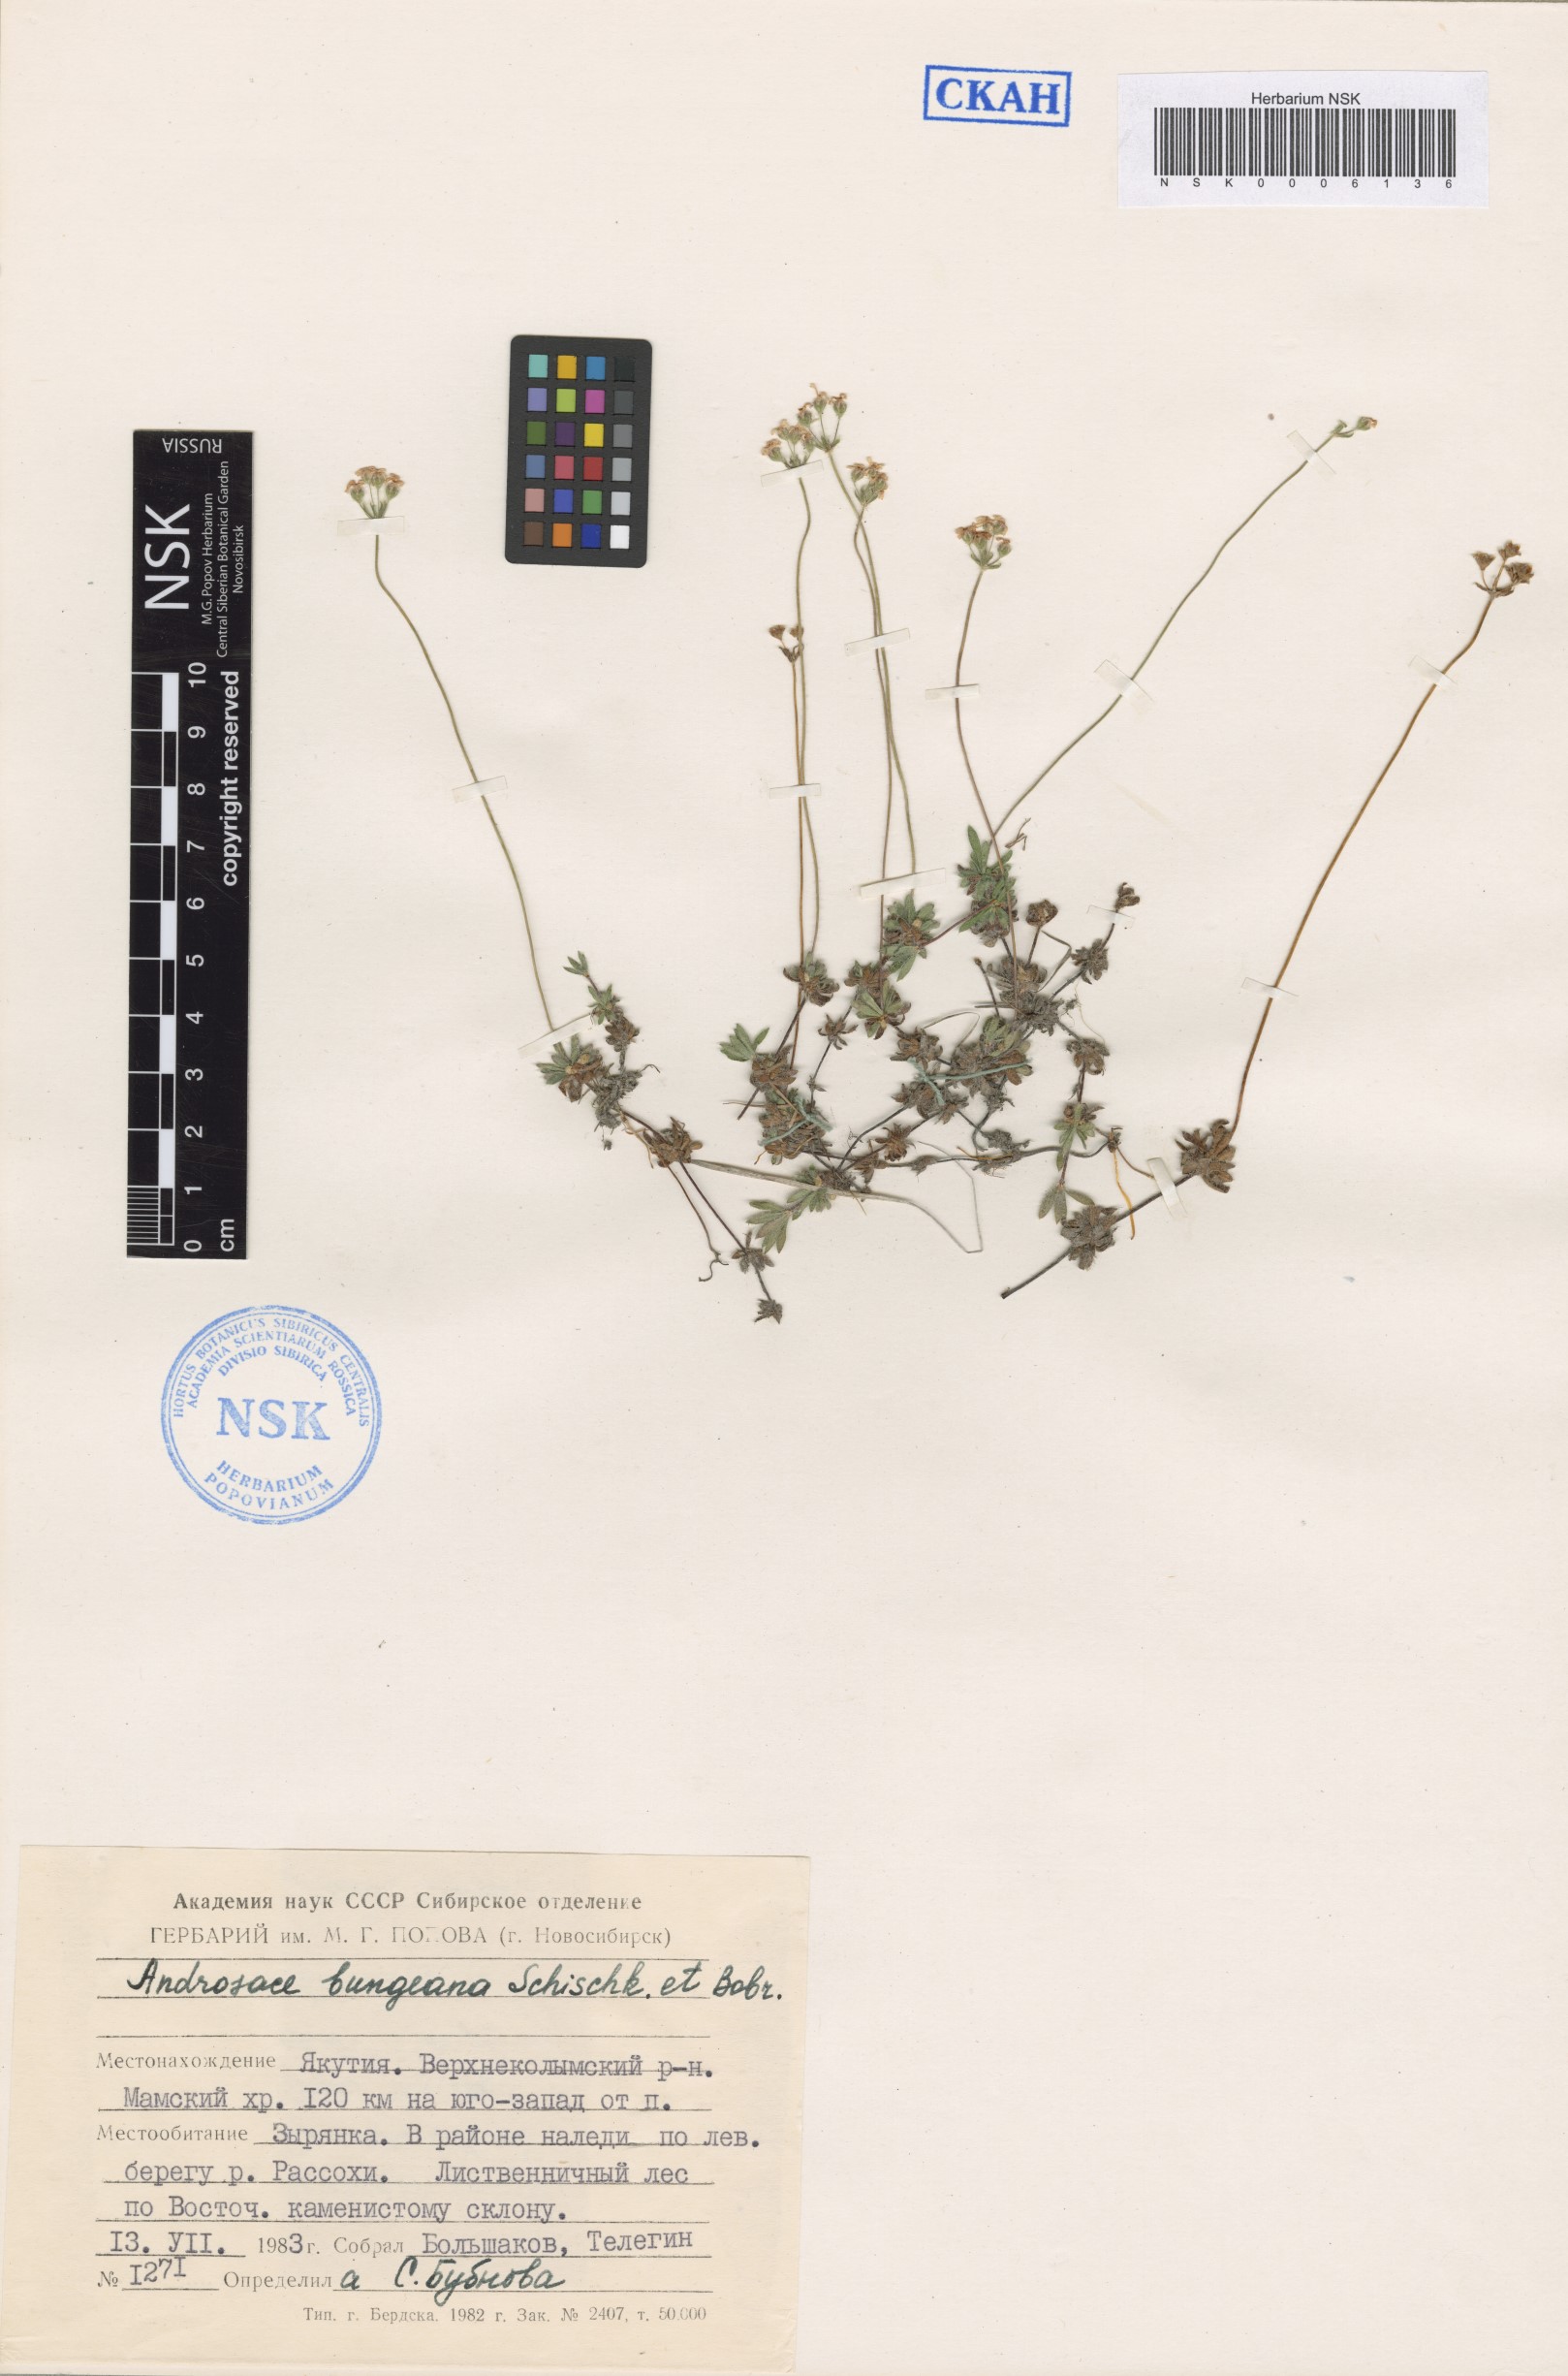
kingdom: Plantae
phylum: Tracheophyta
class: Magnoliopsida
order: Ericales
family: Primulaceae
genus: Androsace
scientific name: Androsace bungeana
